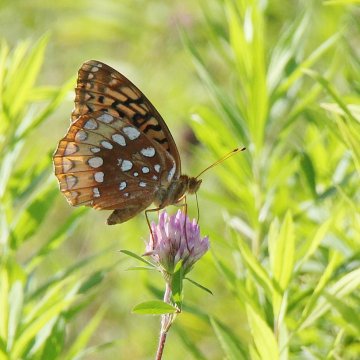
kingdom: Animalia
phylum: Arthropoda
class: Insecta
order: Lepidoptera
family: Nymphalidae
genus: Speyeria
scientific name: Speyeria cybele
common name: Great Spangled Fritillary
